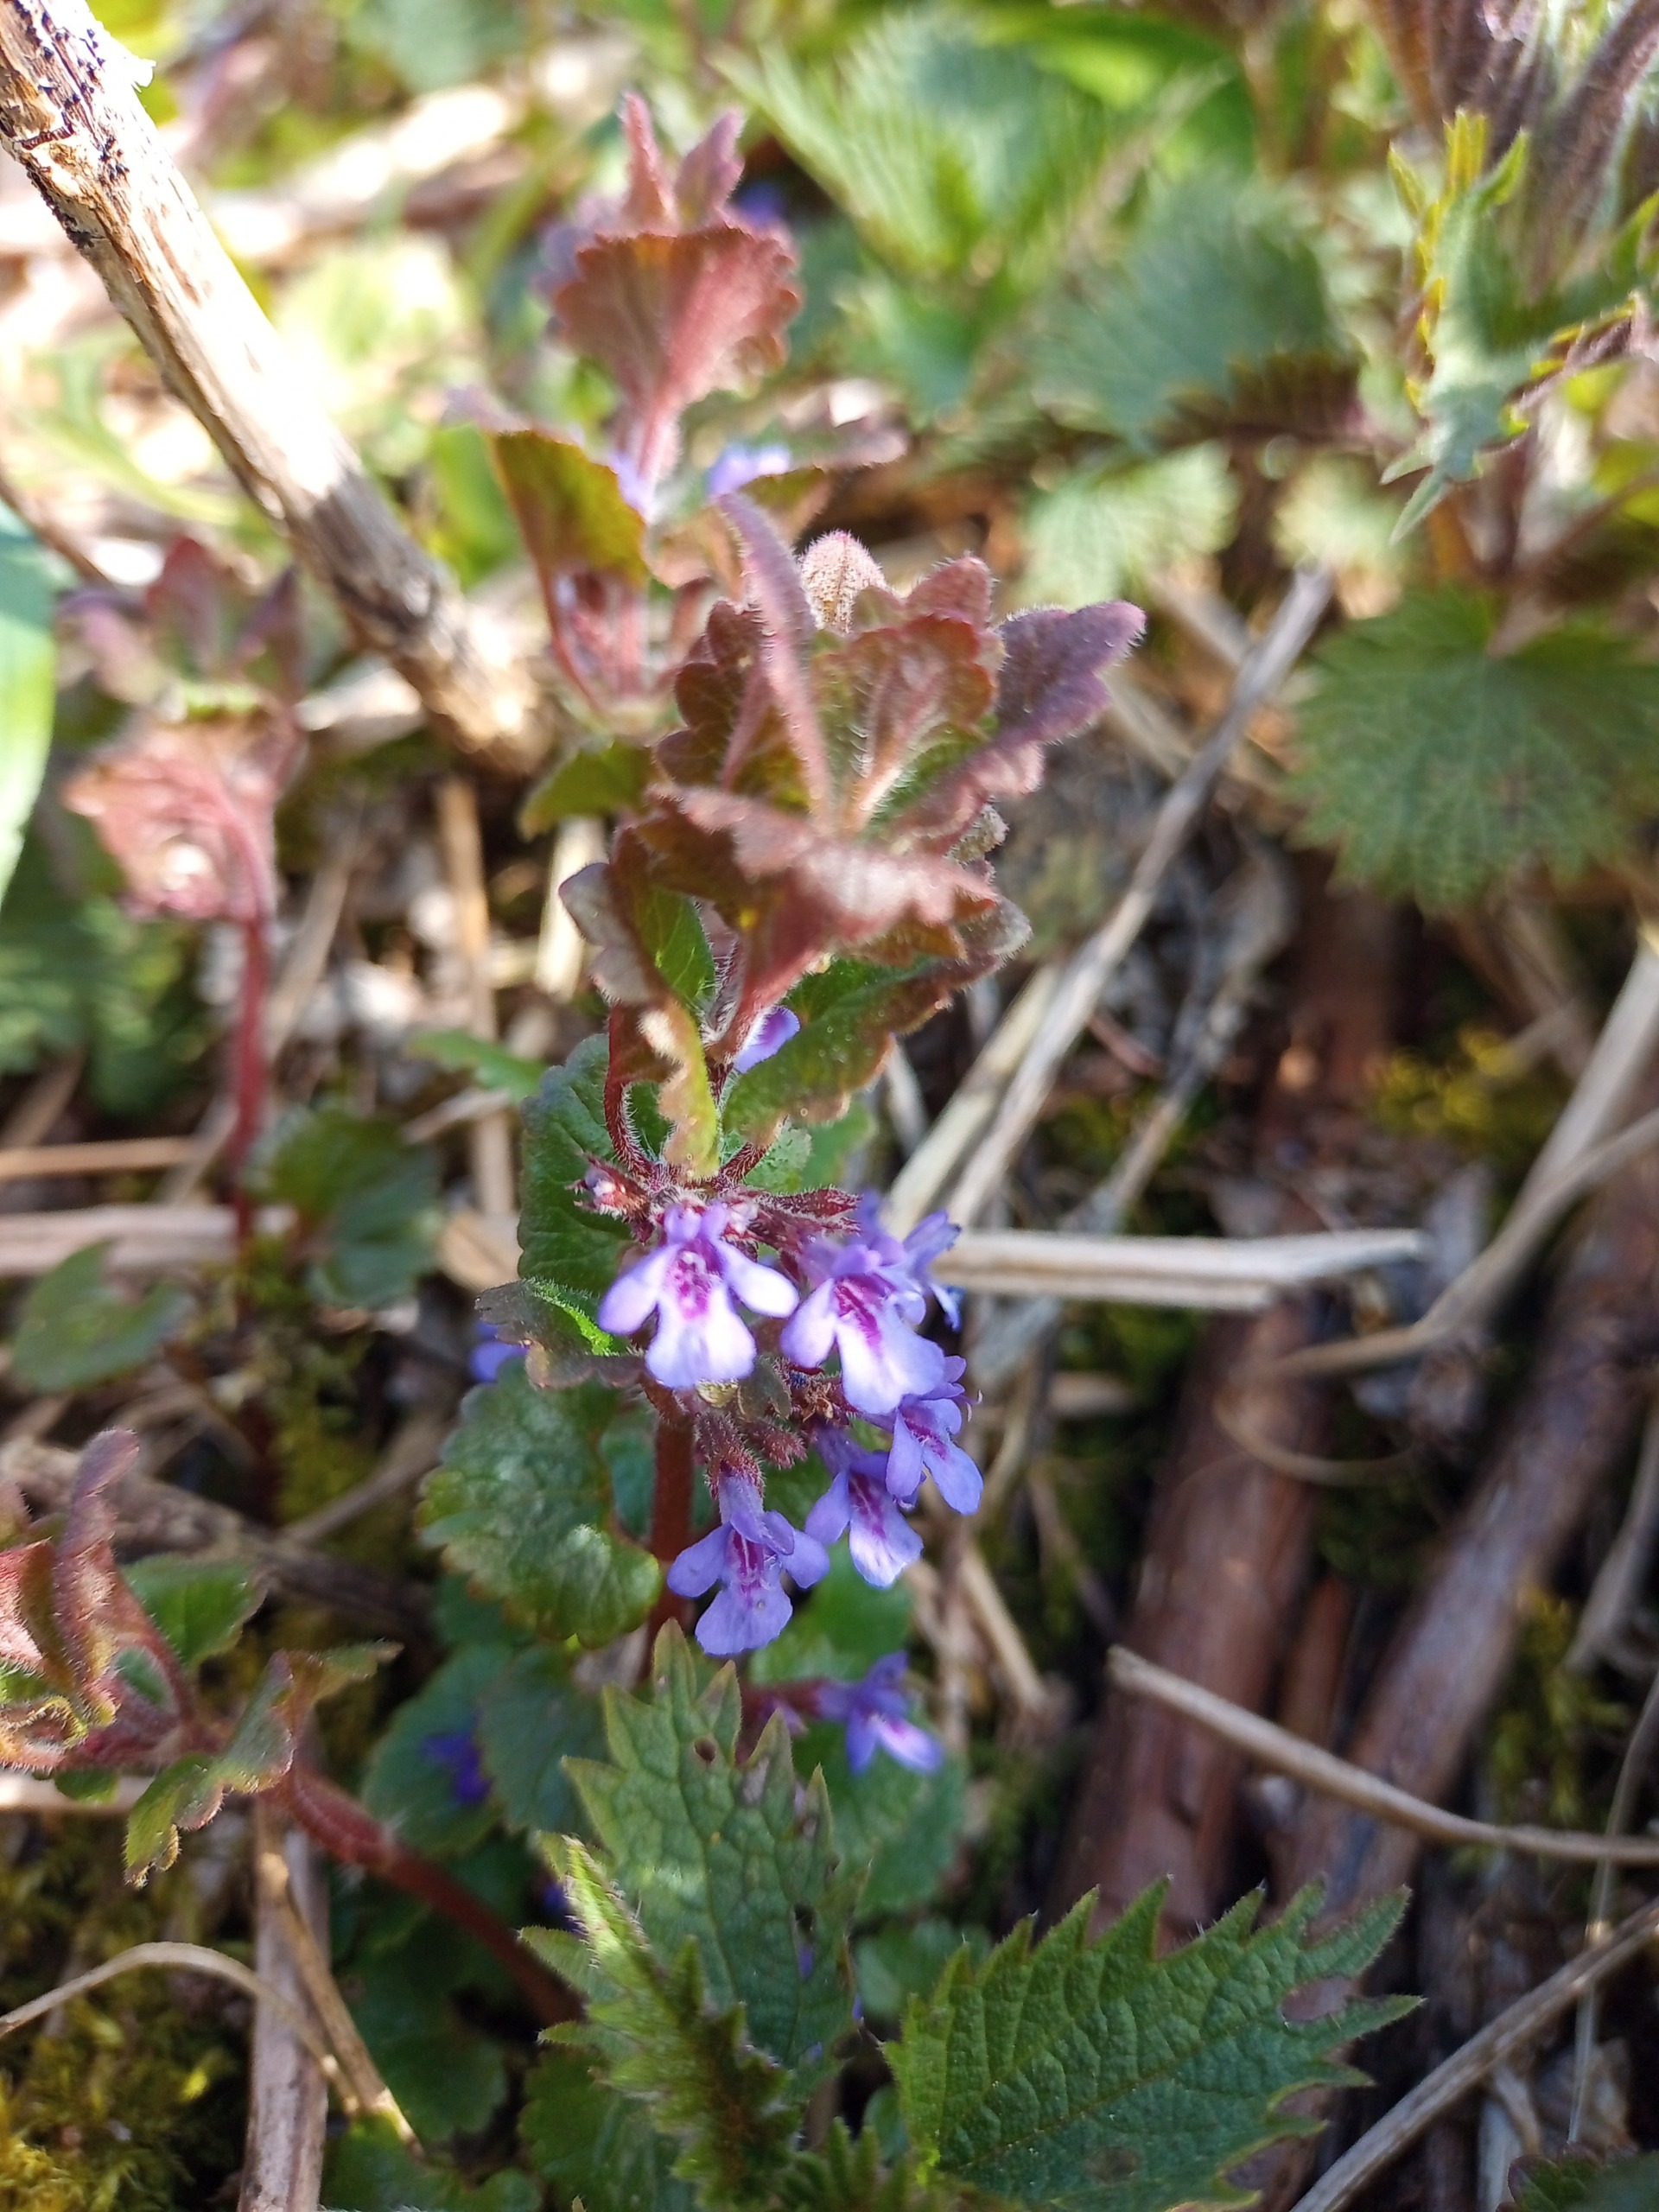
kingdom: Plantae
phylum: Tracheophyta
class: Magnoliopsida
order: Lamiales
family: Lamiaceae
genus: Glechoma
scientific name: Glechoma hederacea
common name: Korsknap
